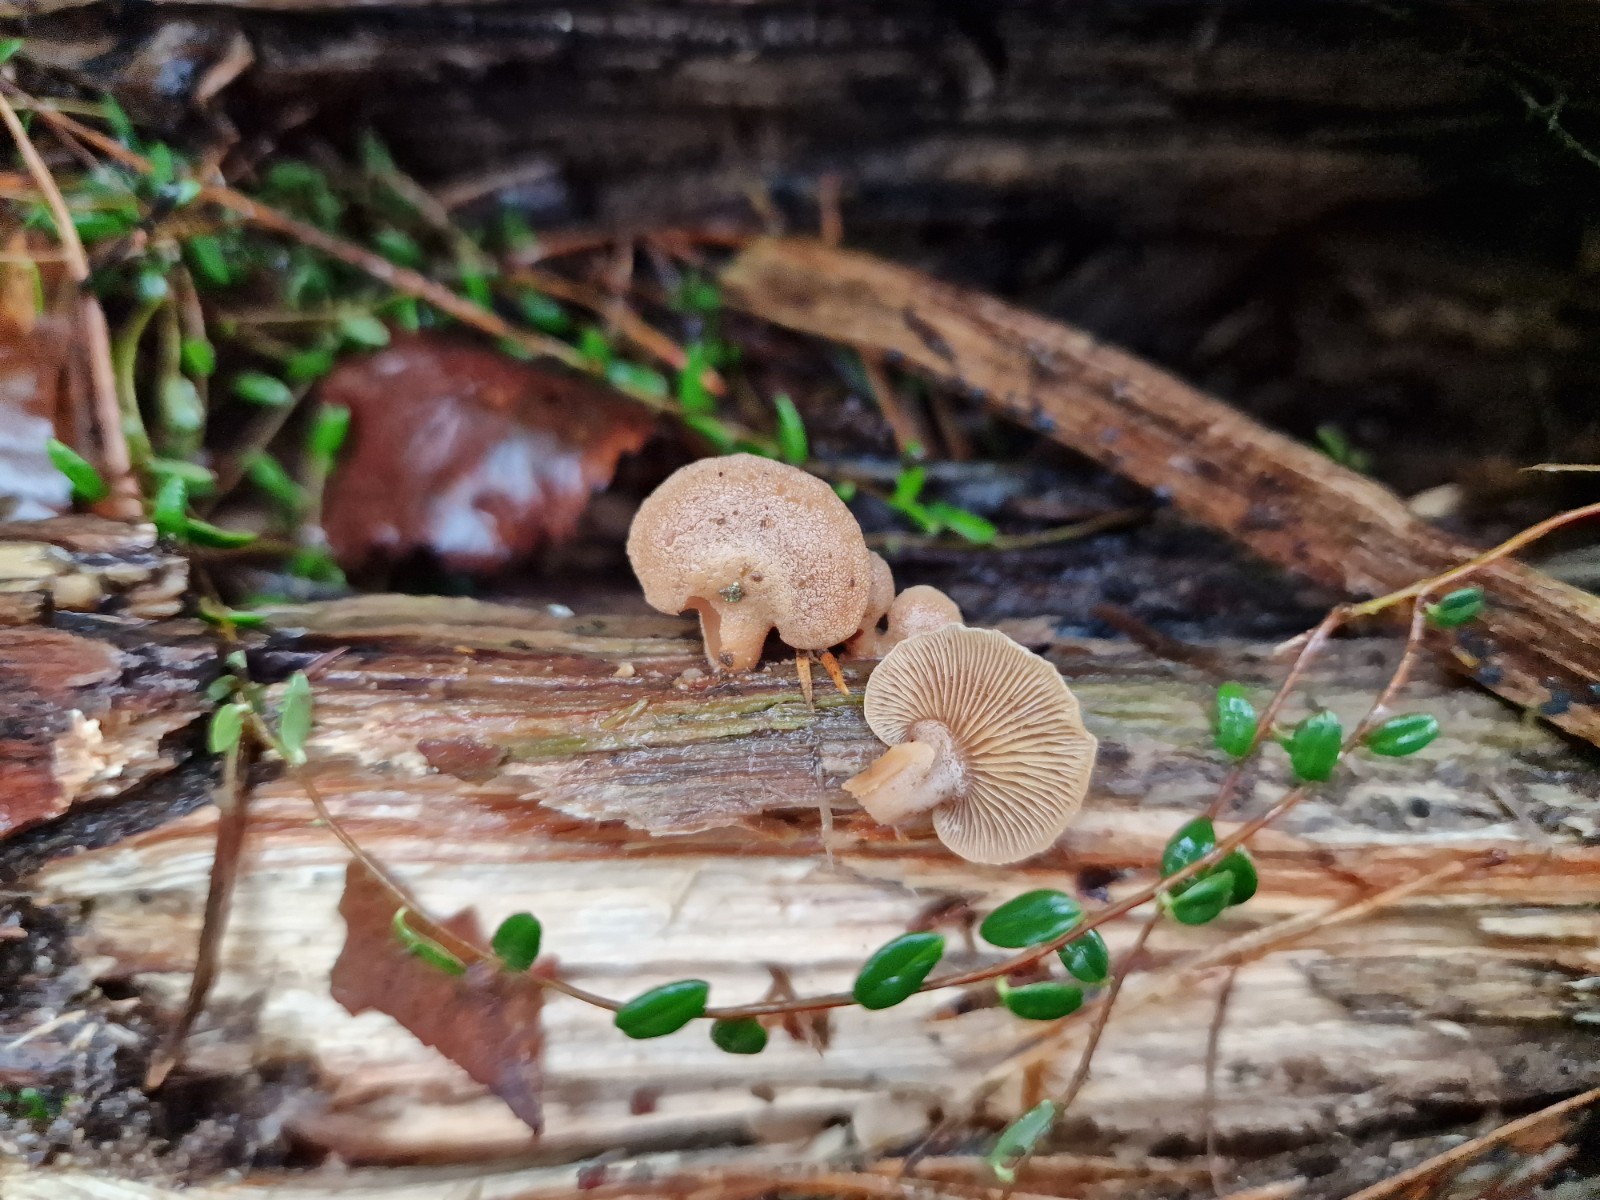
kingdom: Fungi
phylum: Basidiomycota
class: Agaricomycetes
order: Agaricales
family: Mycenaceae
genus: Panellus
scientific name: Panellus stipticus
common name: kliddet epaulethat
